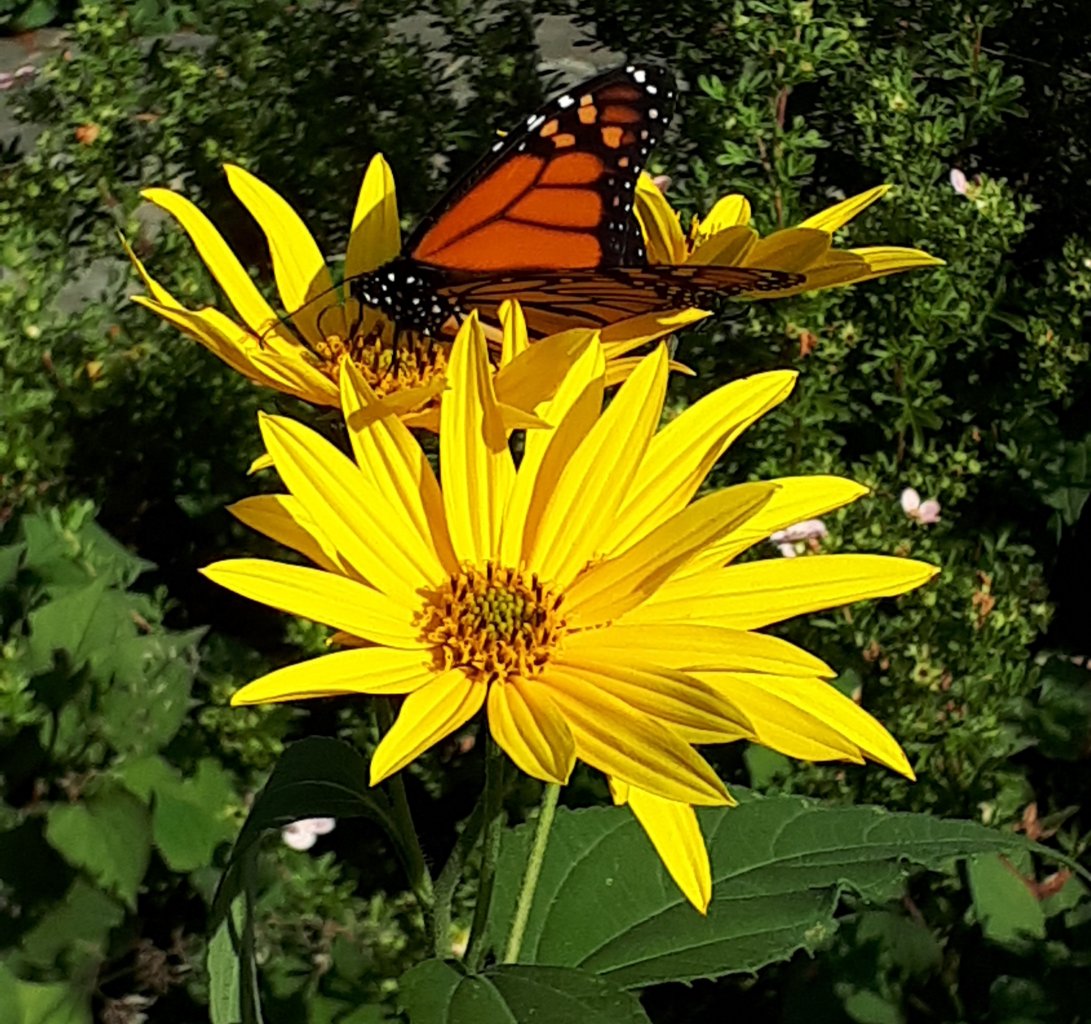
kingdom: Animalia
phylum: Arthropoda
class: Insecta
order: Lepidoptera
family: Nymphalidae
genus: Danaus
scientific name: Danaus plexippus
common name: Monarch
